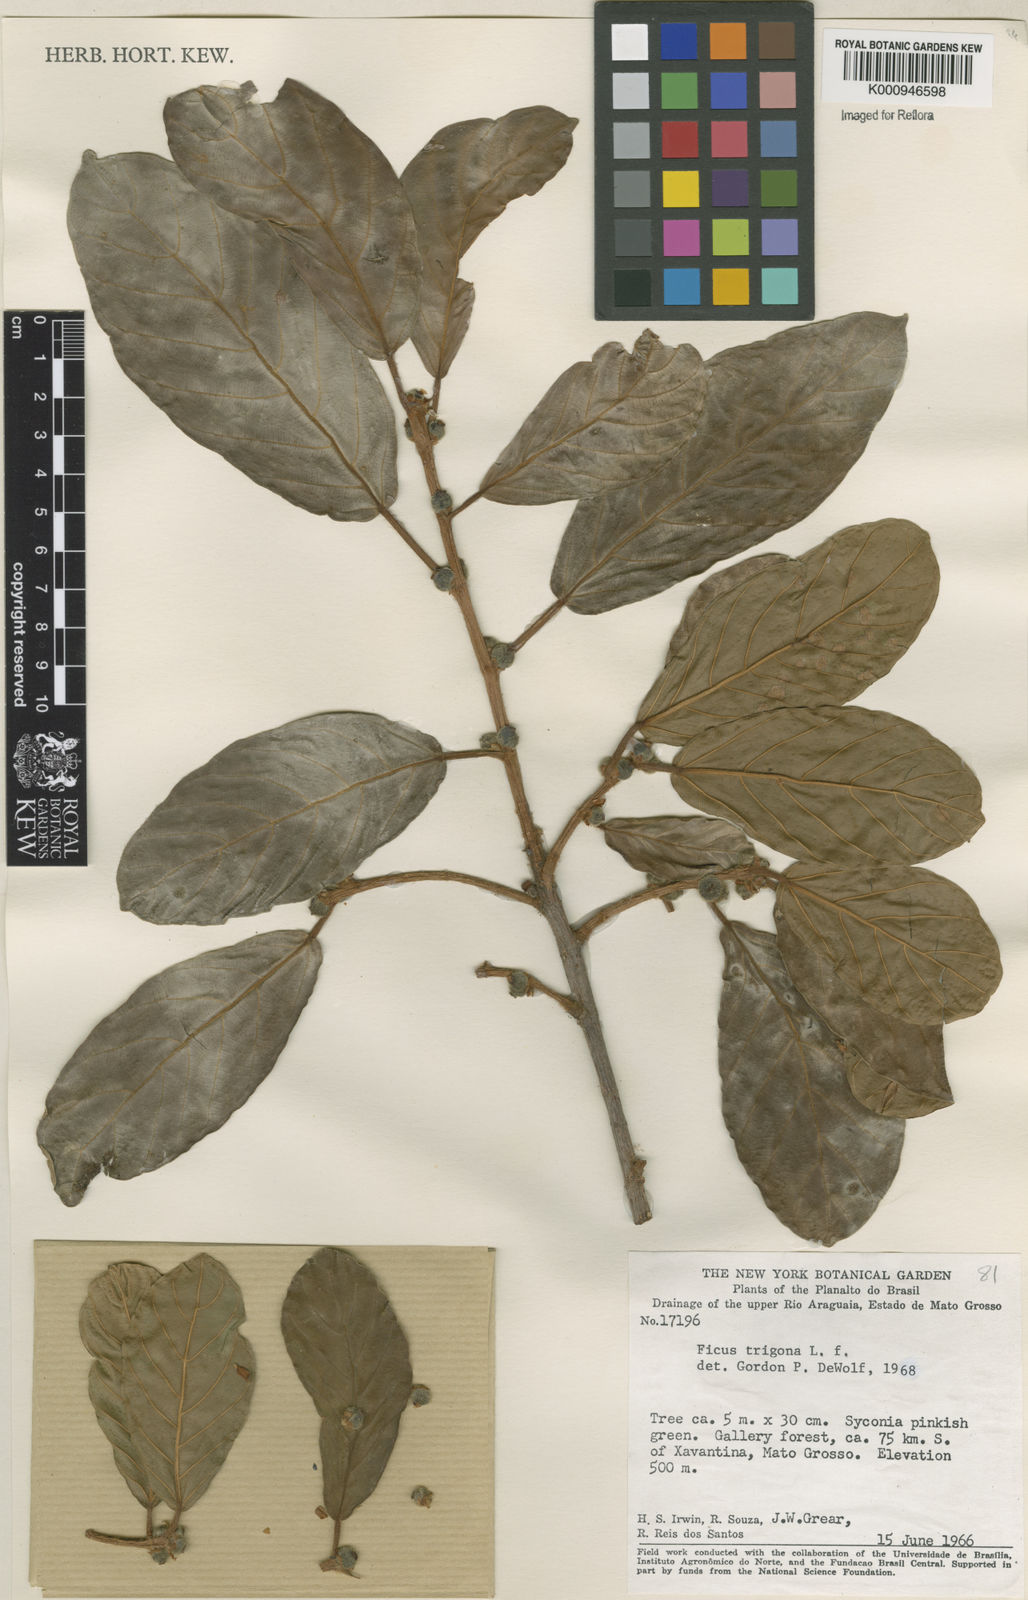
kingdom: Plantae
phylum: Tracheophyta
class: Magnoliopsida
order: Rosales
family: Moraceae
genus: Ficus
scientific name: Ficus trigona
